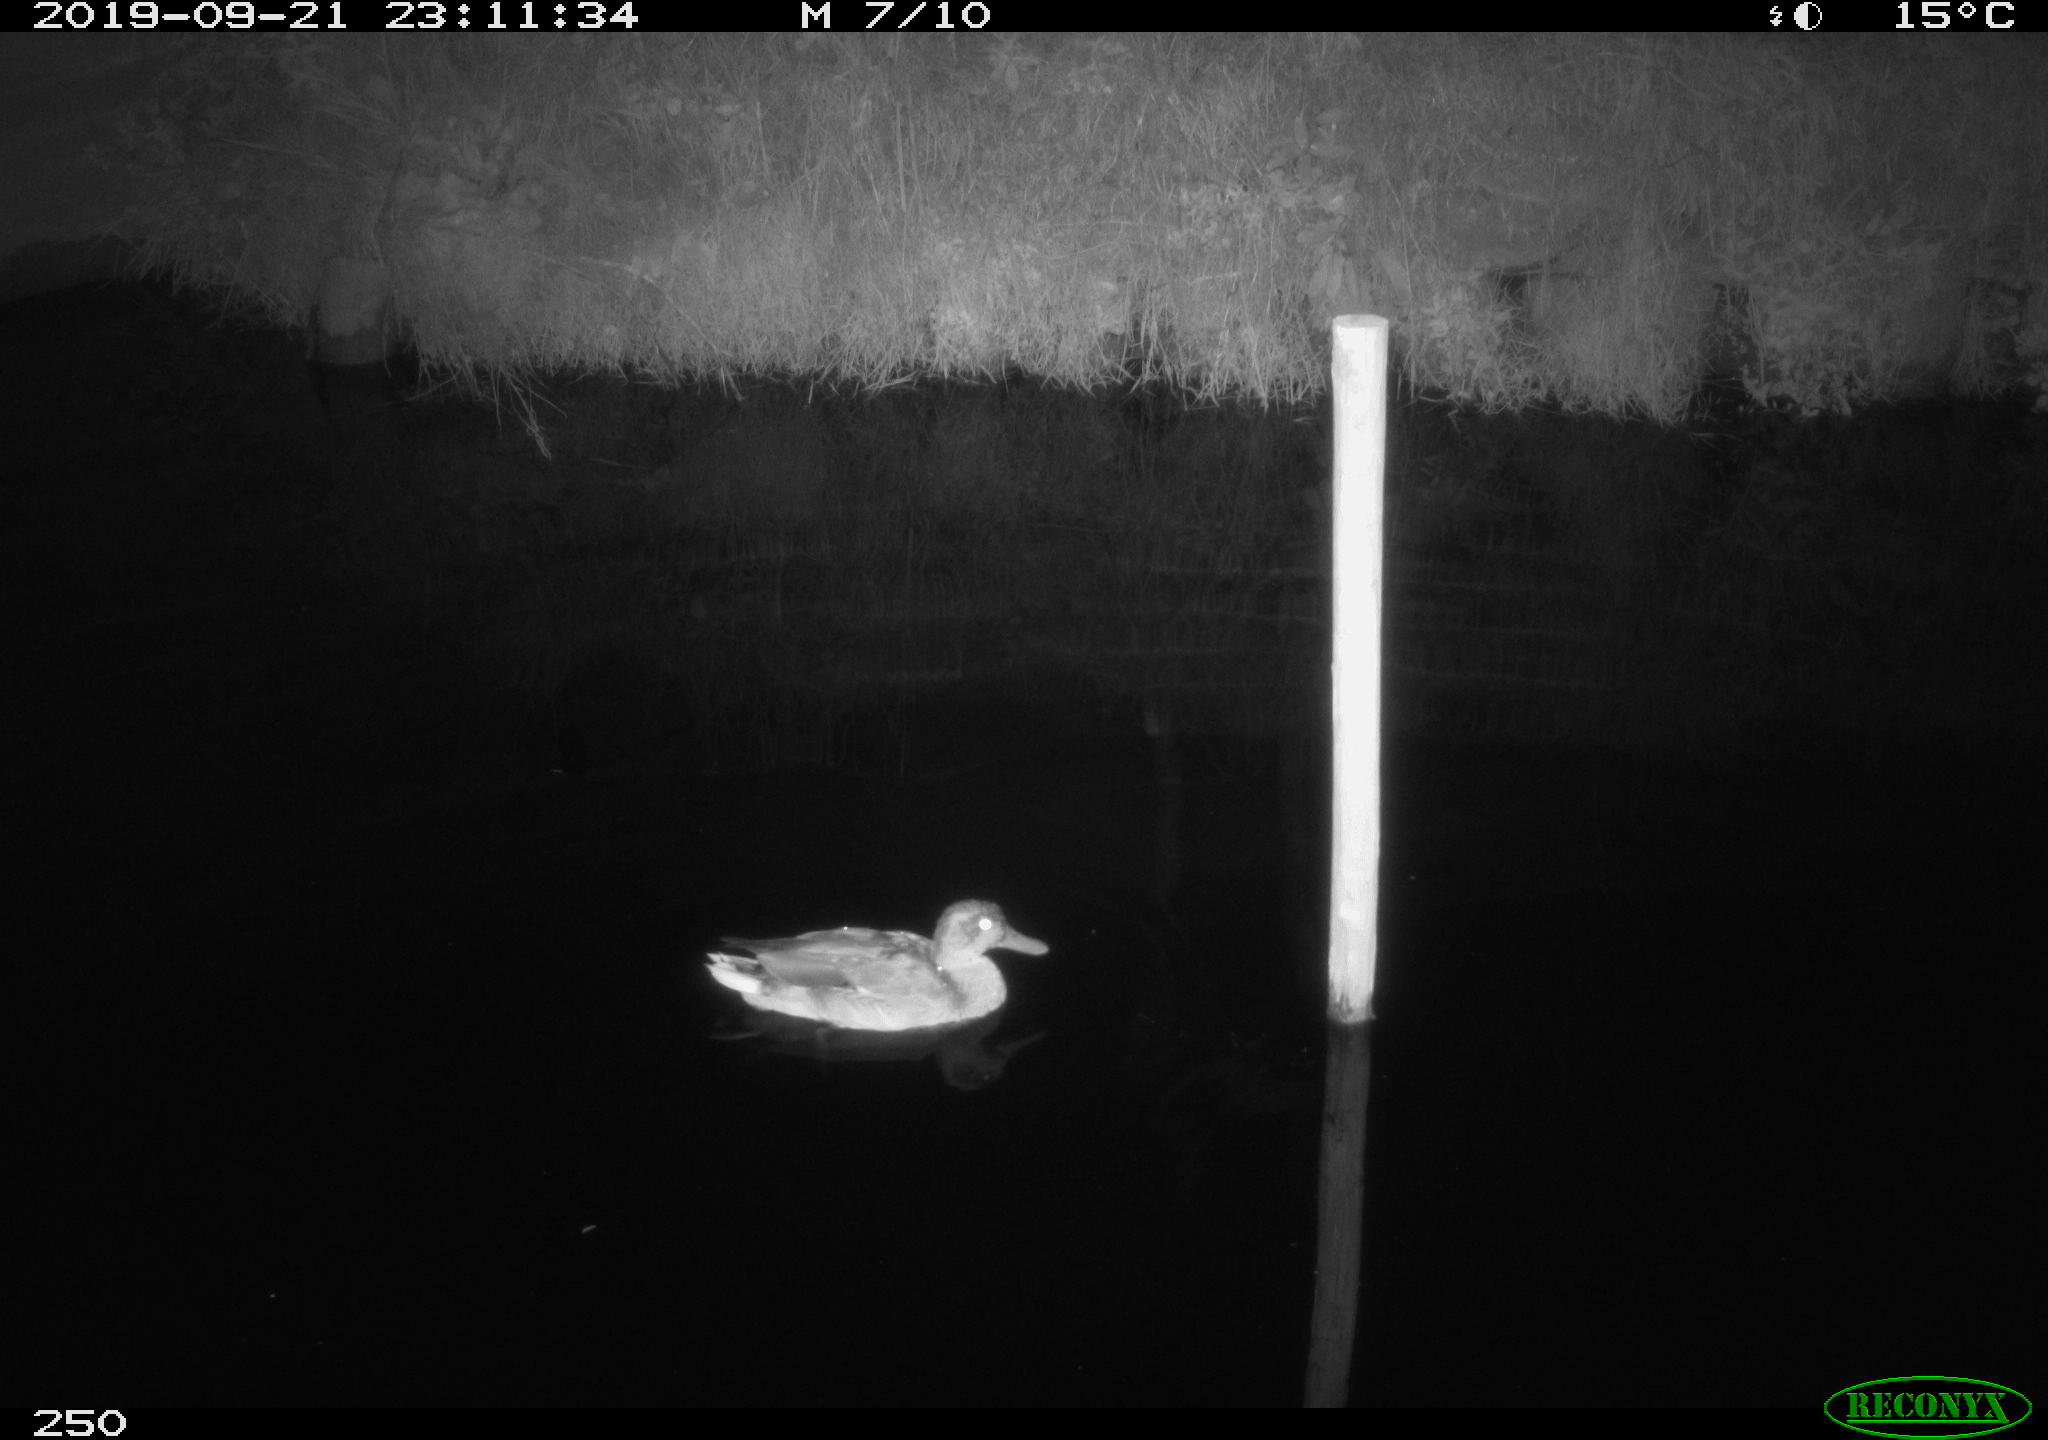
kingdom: Animalia
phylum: Chordata
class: Aves
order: Anseriformes
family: Anatidae
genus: Anas
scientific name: Anas platyrhynchos
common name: Mallard
